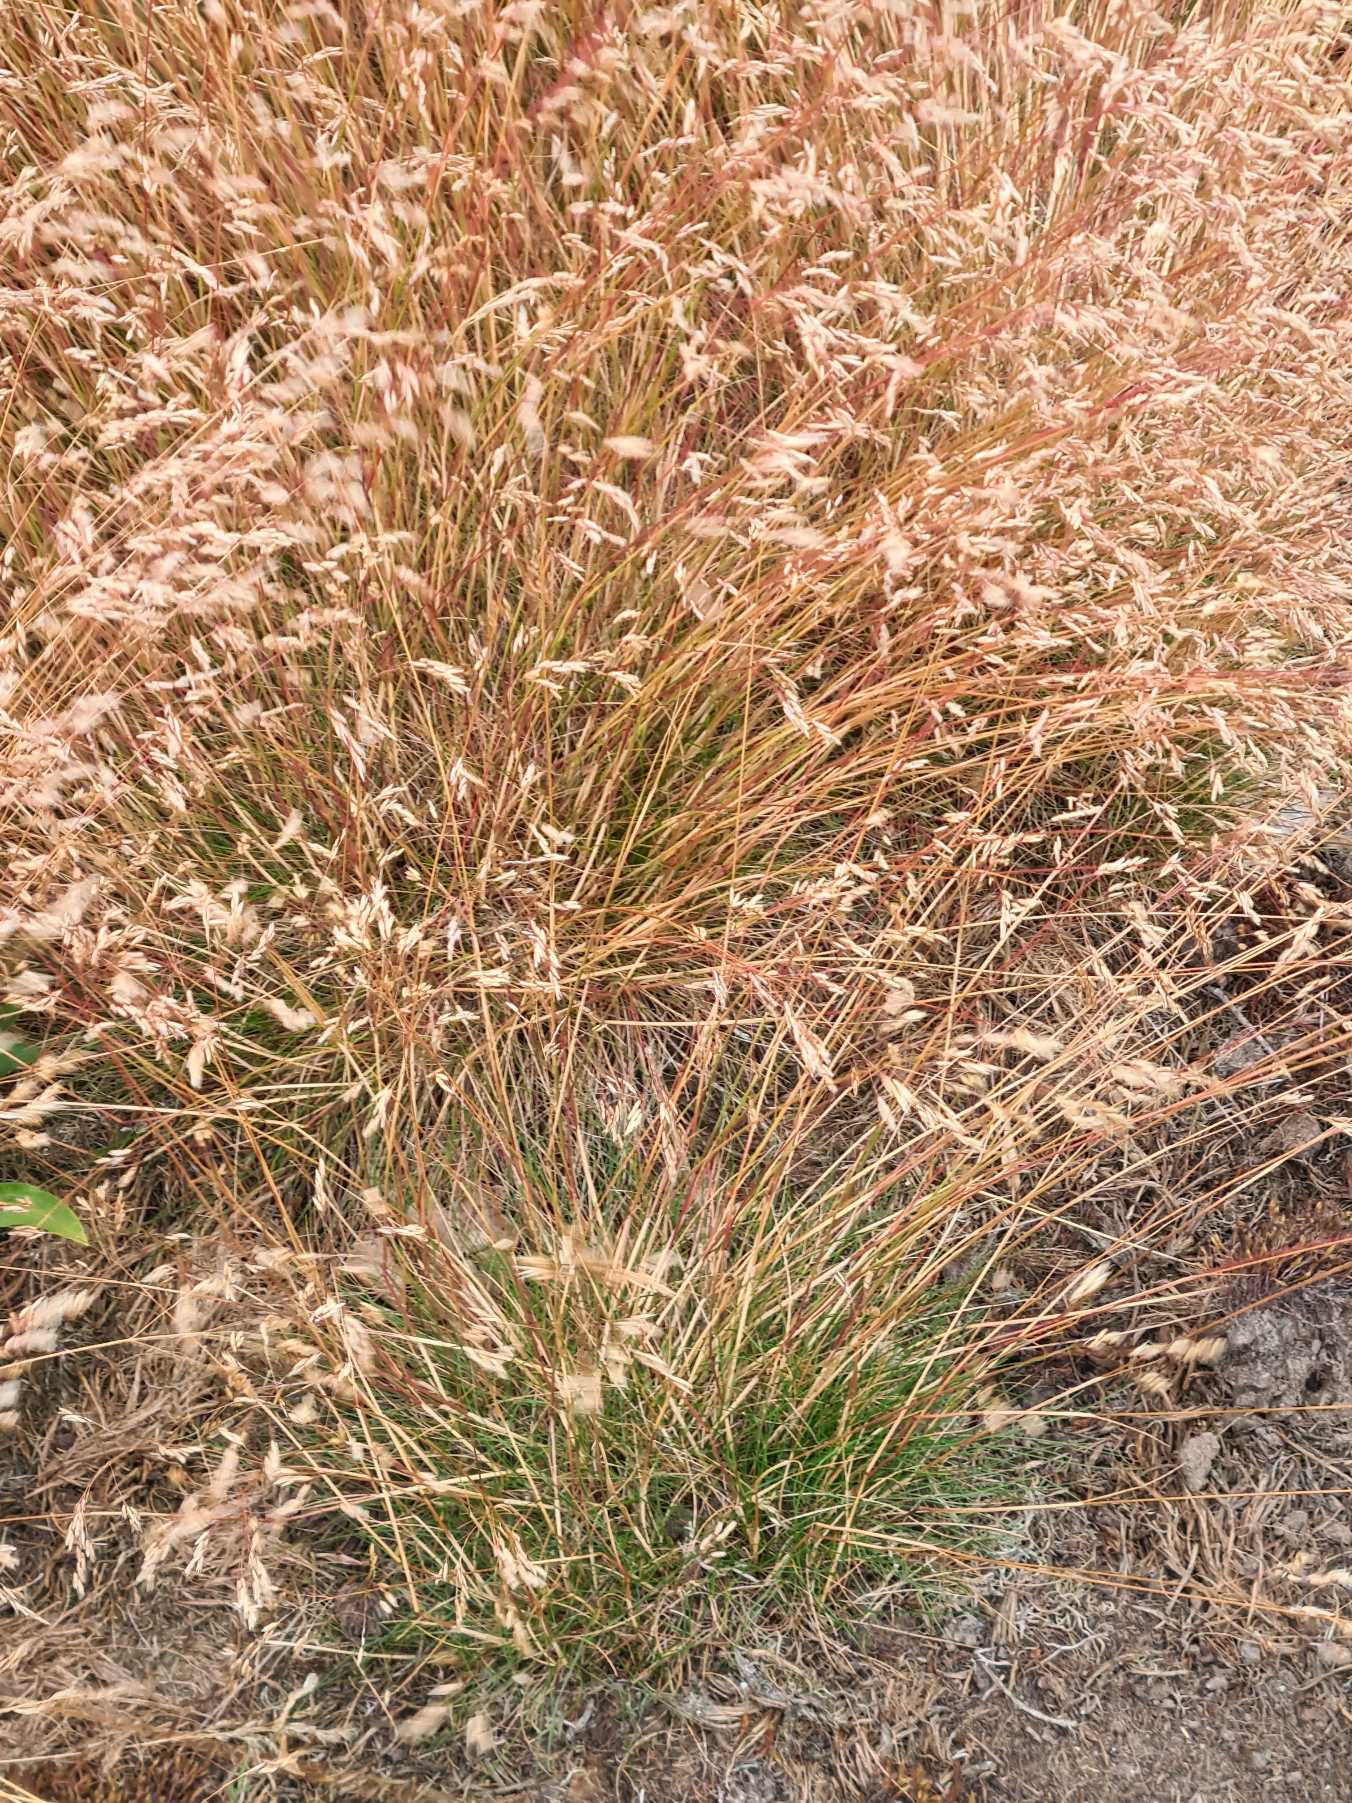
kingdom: Plantae
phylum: Tracheophyta
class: Liliopsida
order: Poales
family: Poaceae
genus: Avenella
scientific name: Avenella flexuosa
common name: Bølget bunke
